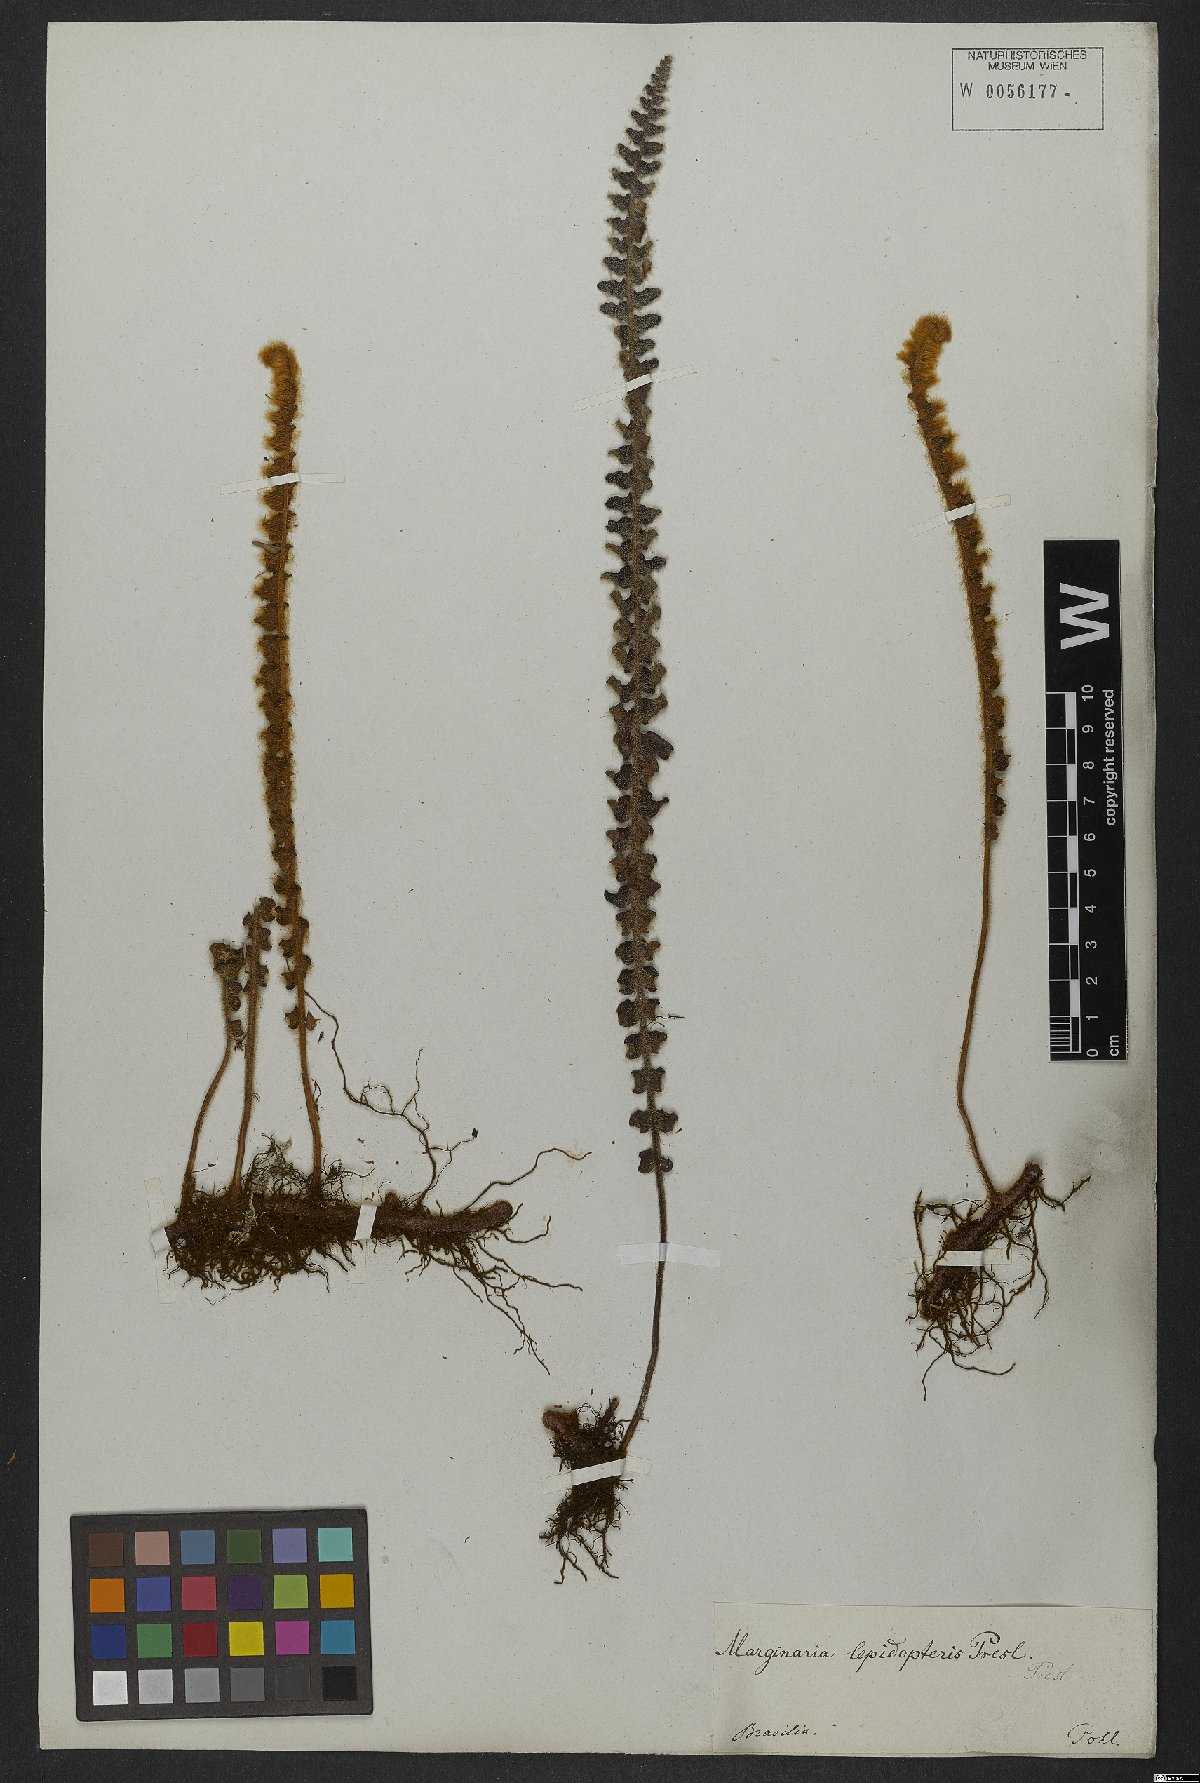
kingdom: Plantae
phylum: Tracheophyta
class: Polypodiopsida
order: Polypodiales
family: Polypodiaceae
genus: Pleopeltis
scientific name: Pleopeltis lepidopteris
